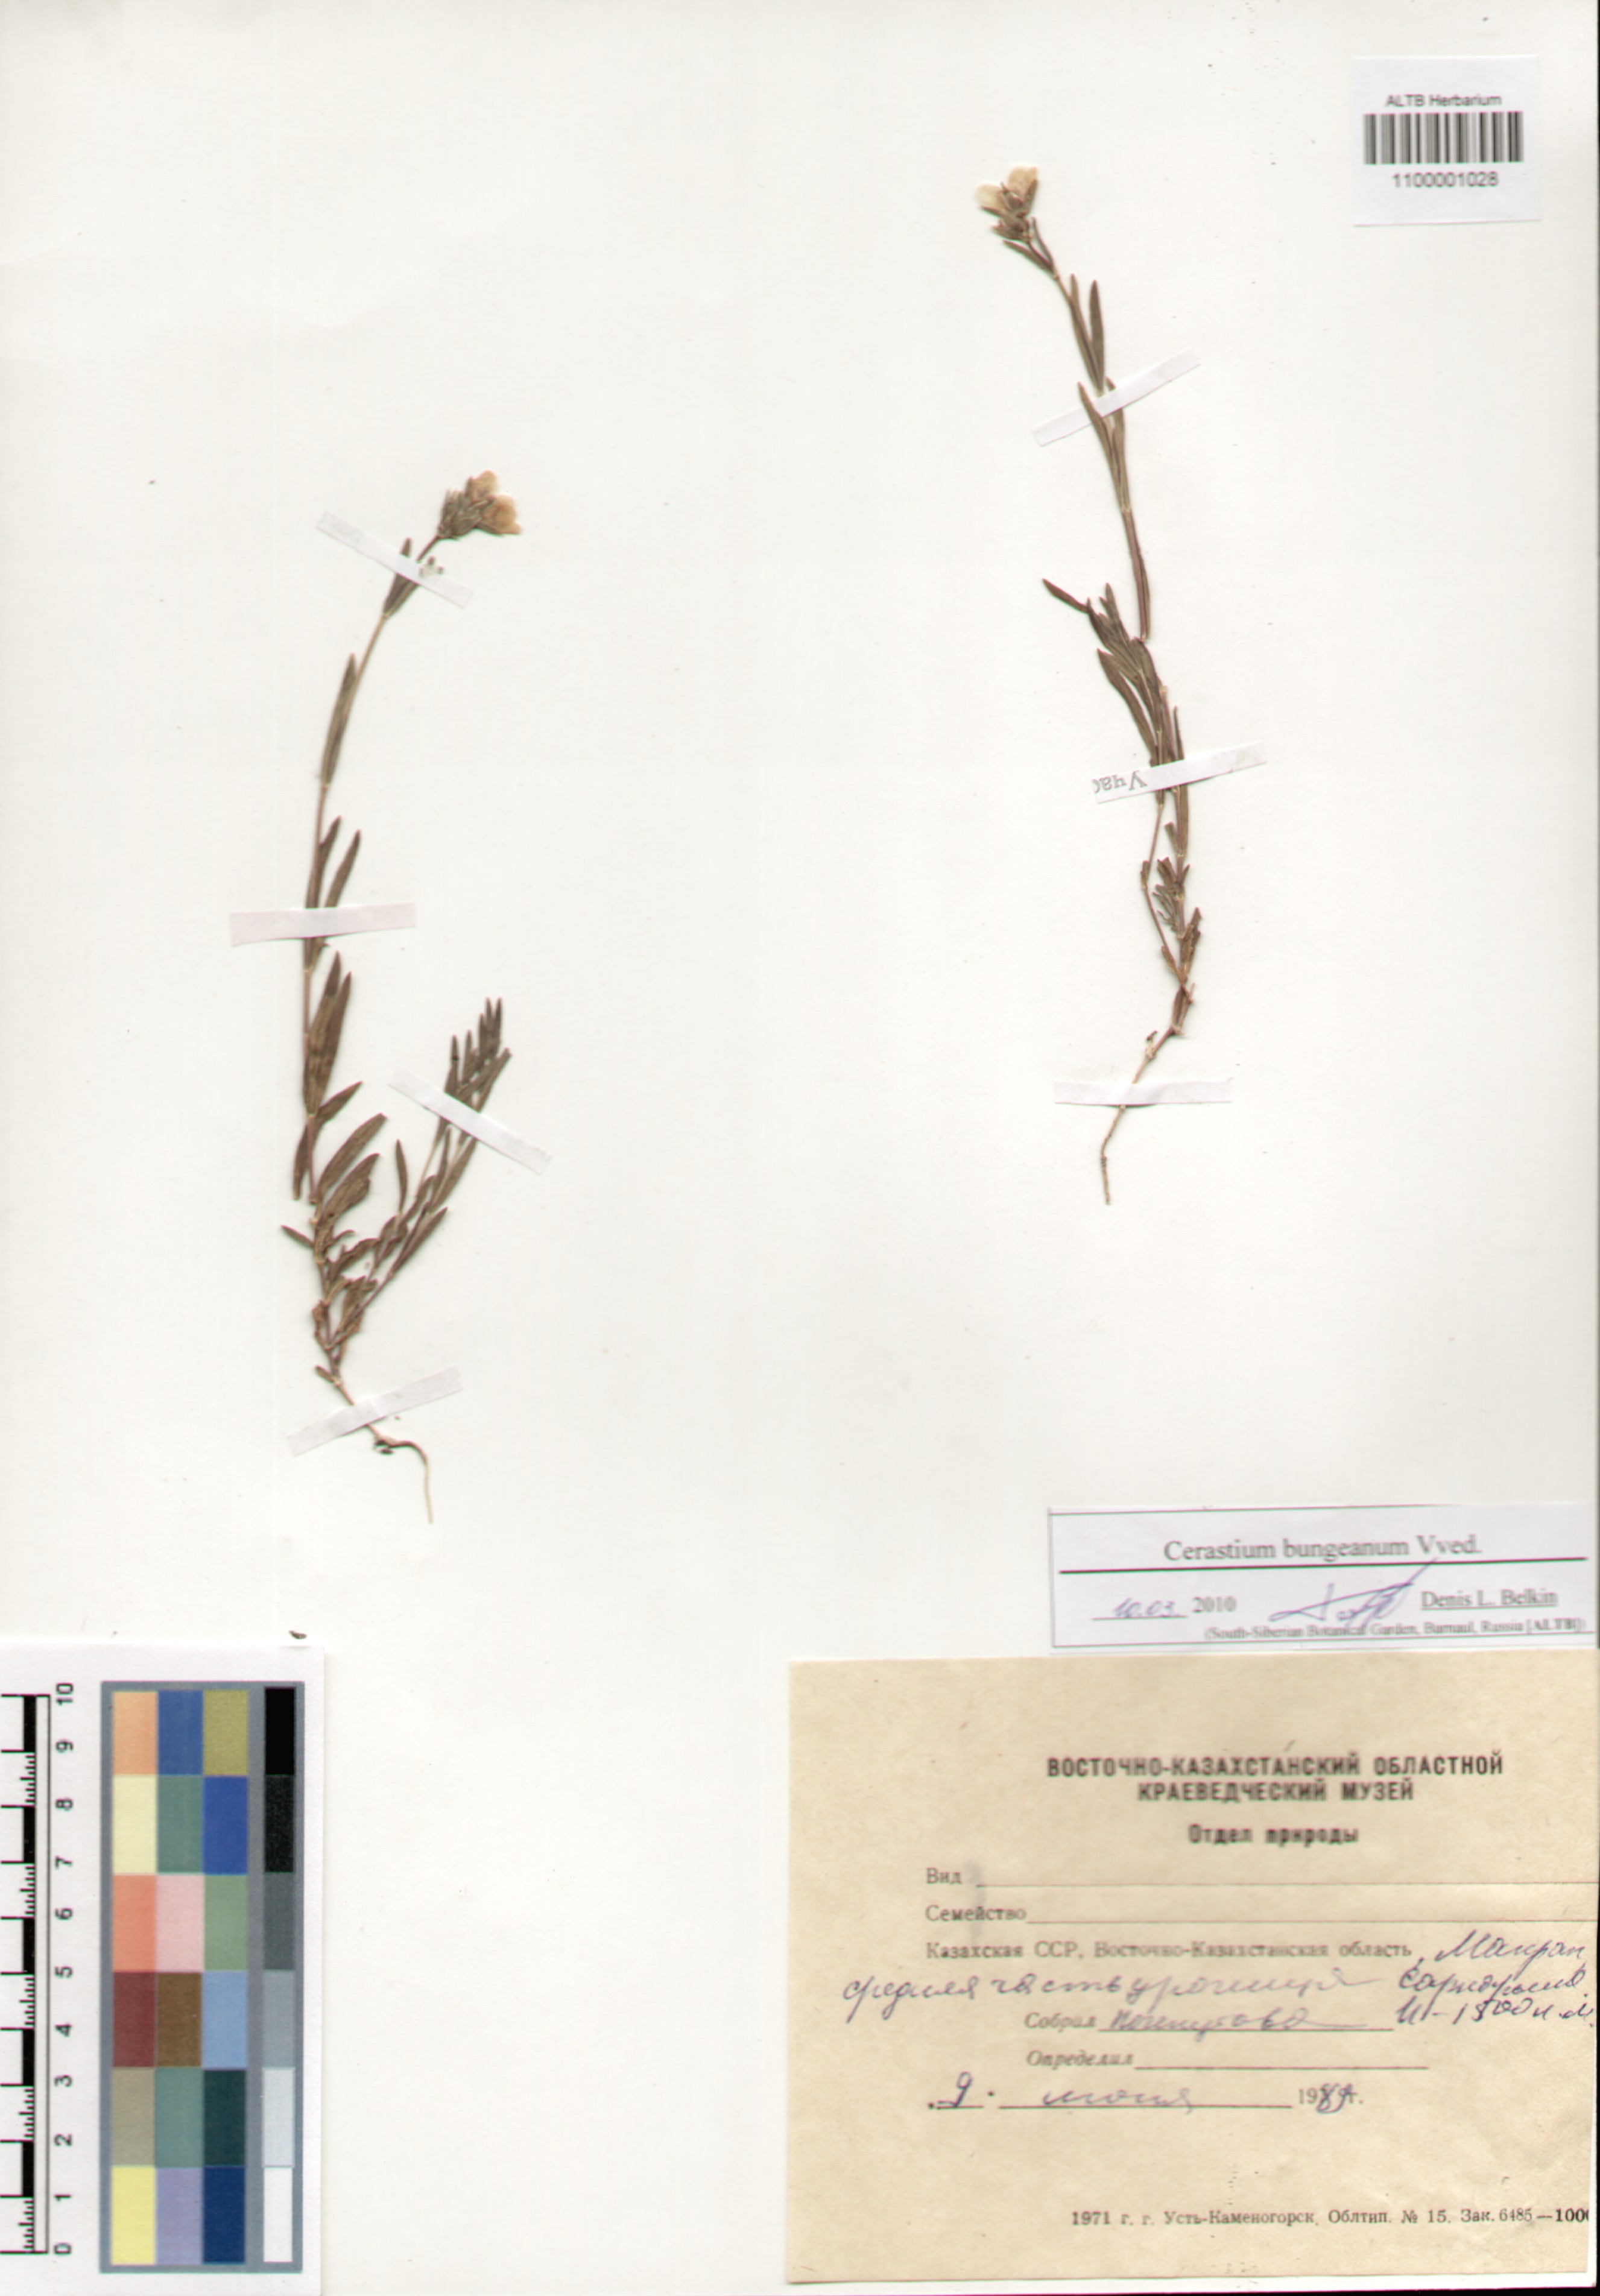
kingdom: Plantae
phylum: Tracheophyta
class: Magnoliopsida
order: Caryophyllales
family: Caryophyllaceae
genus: Dichodon
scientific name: Dichodon maximum
